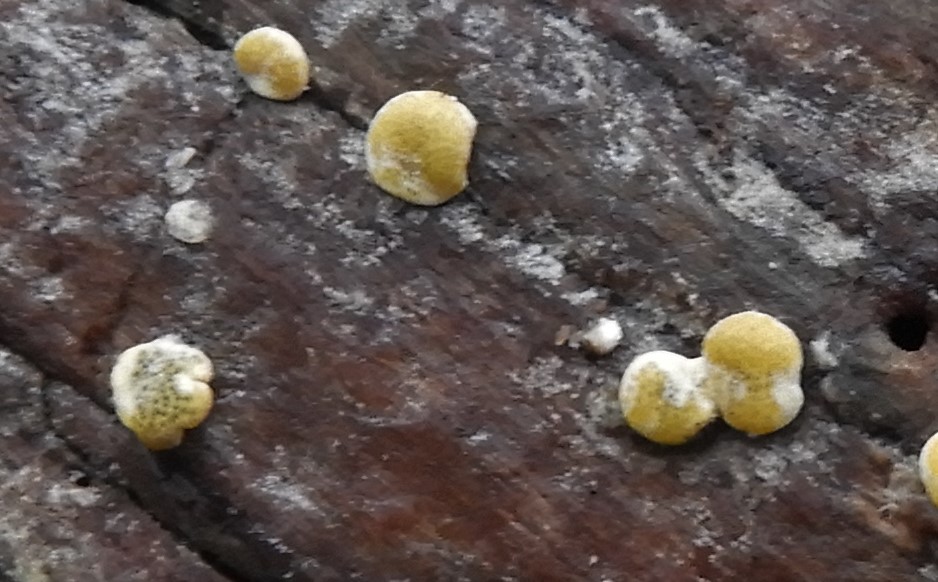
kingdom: Fungi
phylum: Ascomycota
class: Sordariomycetes
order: Hypocreales
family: Hypocreaceae
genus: Trichoderma
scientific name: Trichoderma aureoviride
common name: æggegul kødkerne
